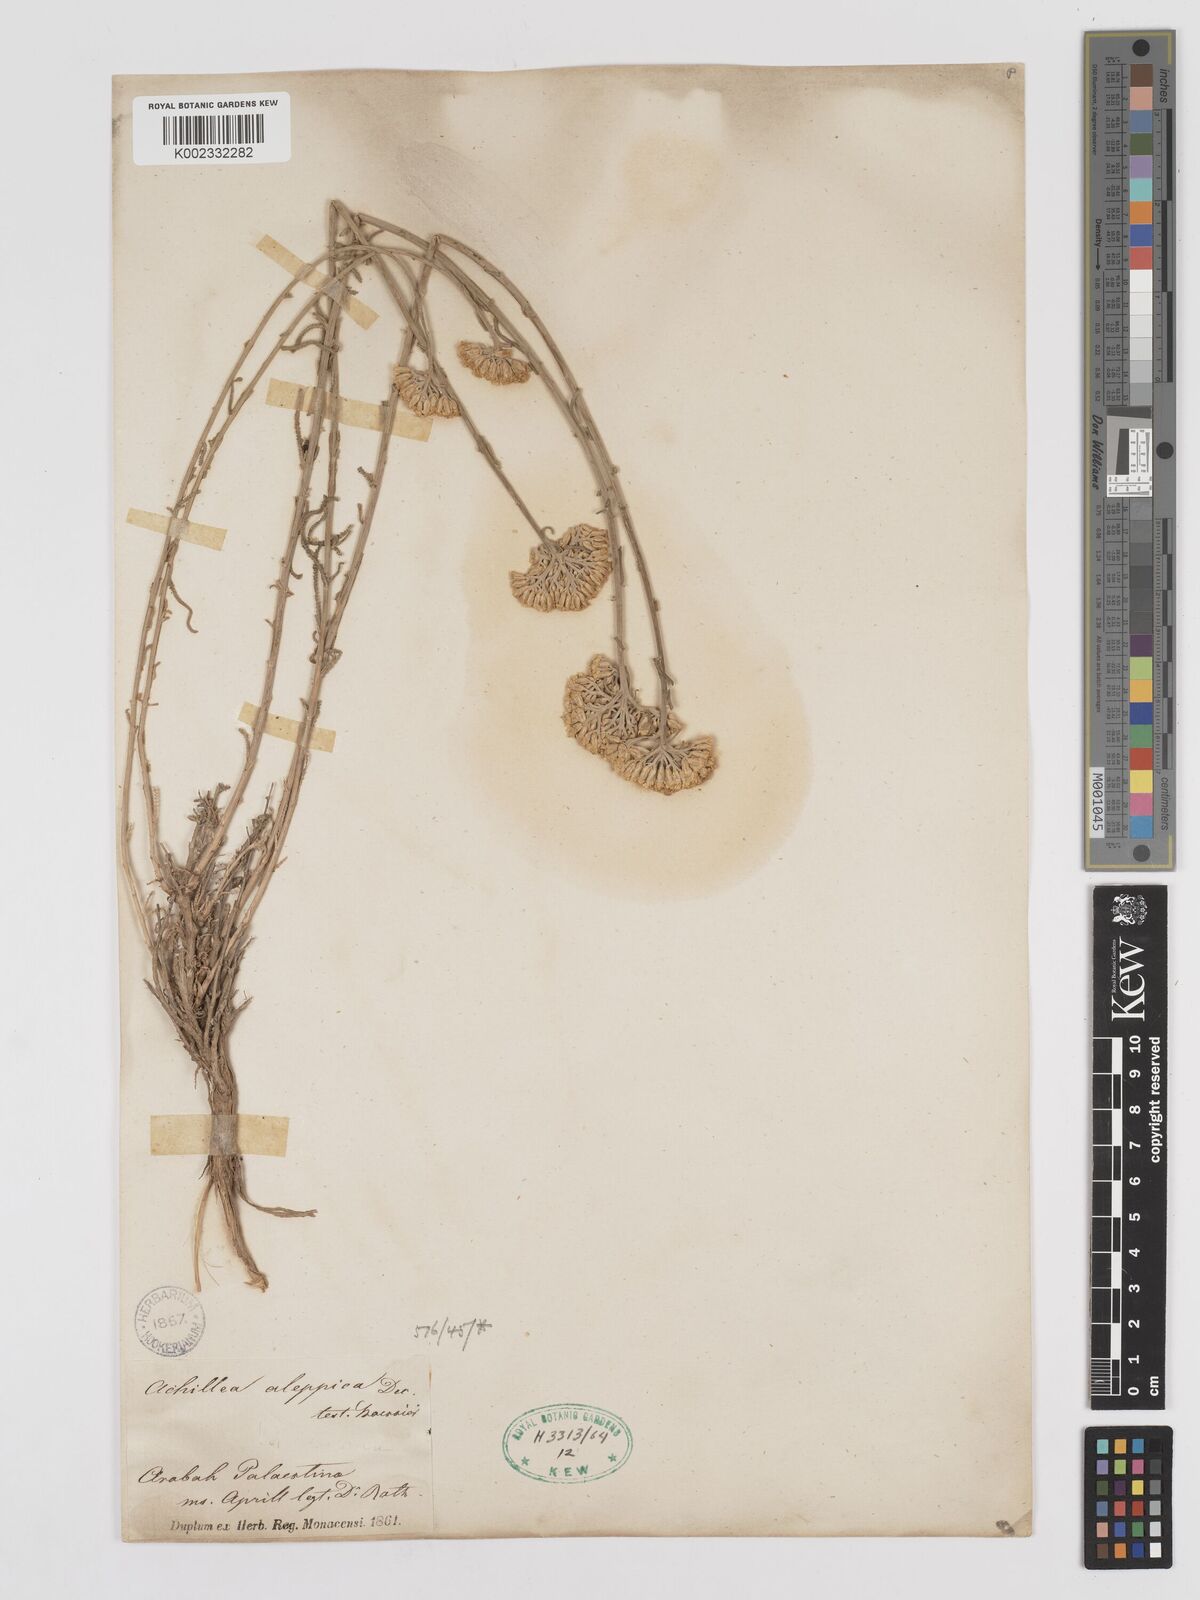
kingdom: Plantae
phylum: Tracheophyta
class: Magnoliopsida
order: Asterales
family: Asteraceae
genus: Achillea
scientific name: Achillea aleppica
